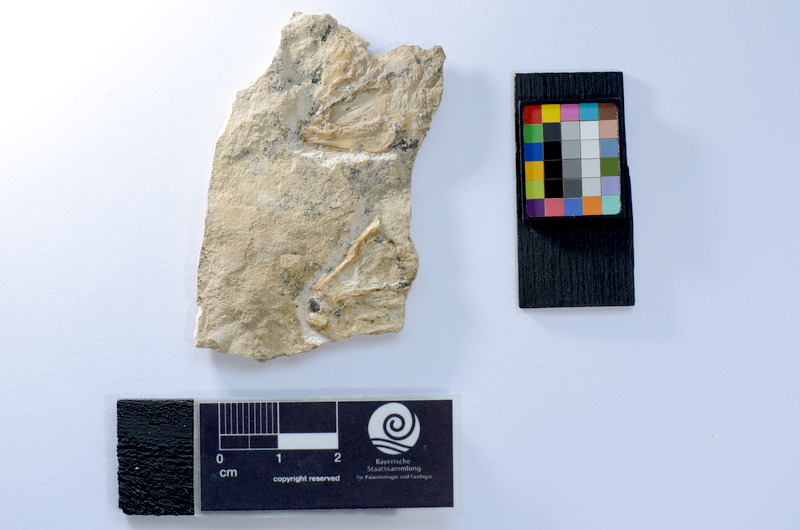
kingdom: Animalia
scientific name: Animalia
